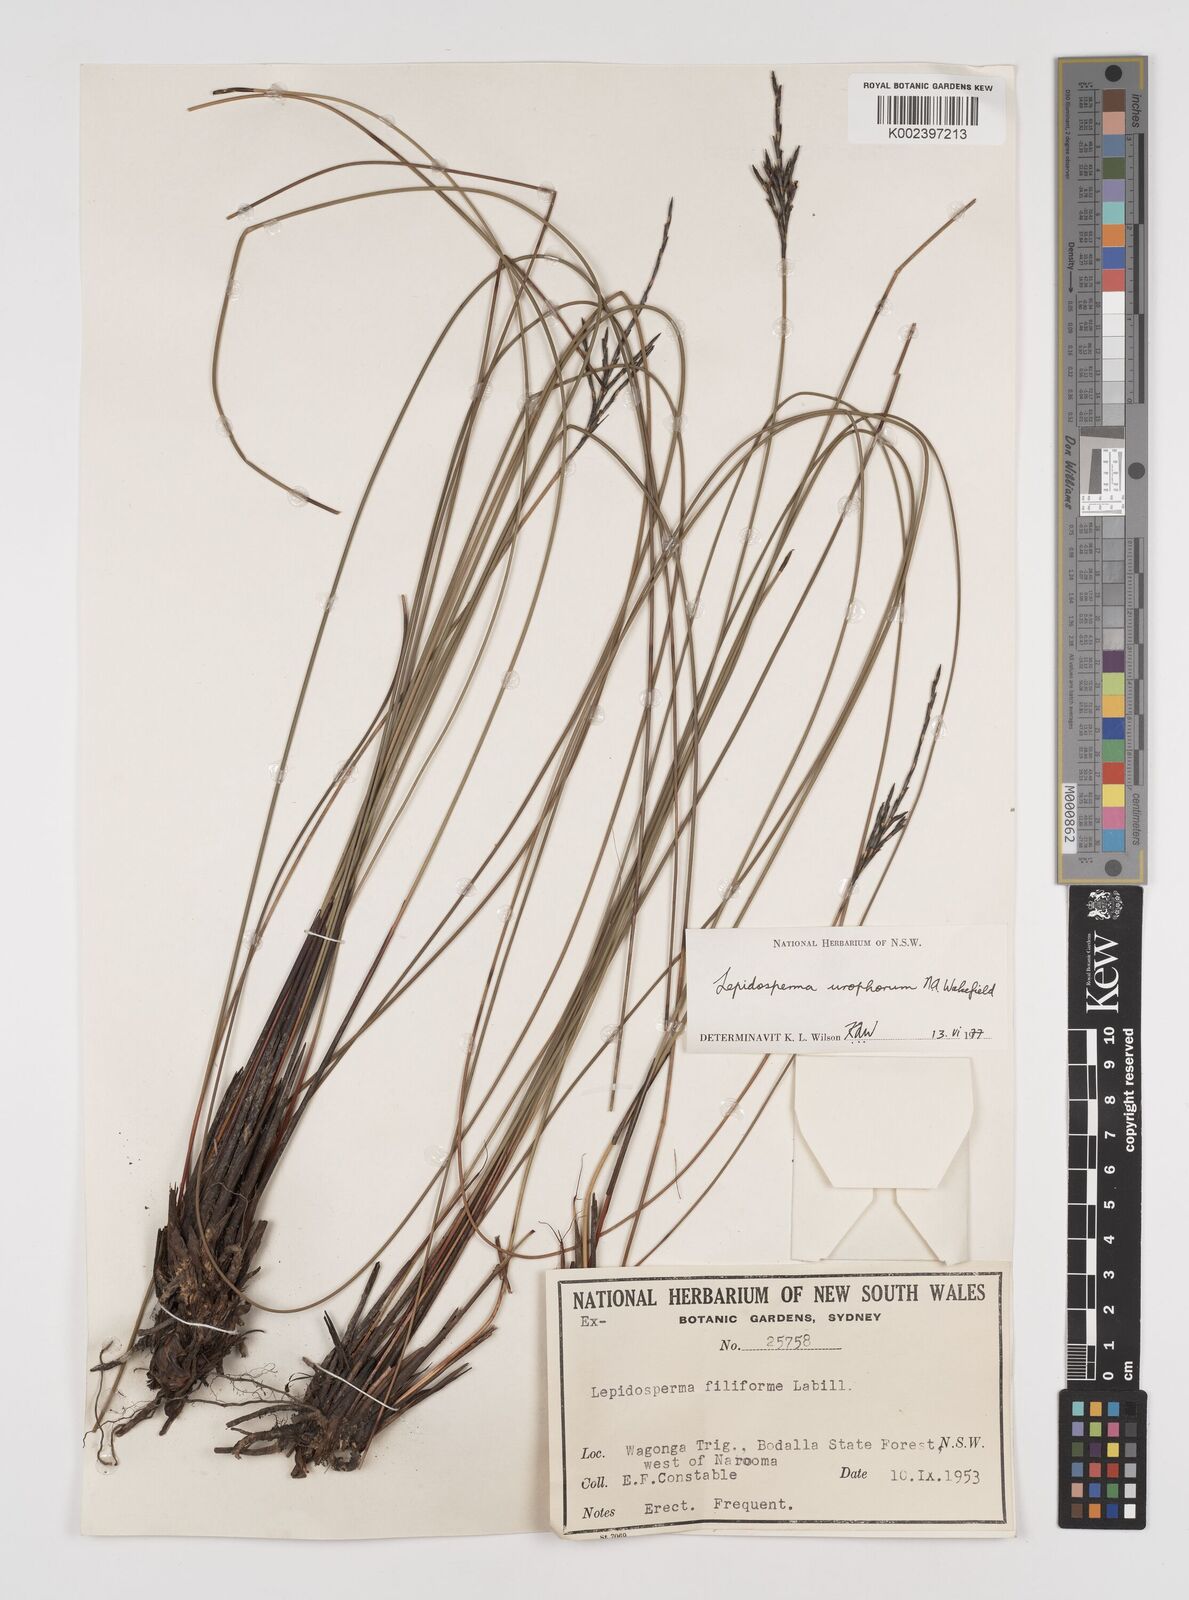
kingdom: Plantae
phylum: Tracheophyta
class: Liliopsida
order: Poales
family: Cyperaceae
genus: Lepidosperma
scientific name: Lepidosperma urophorum
